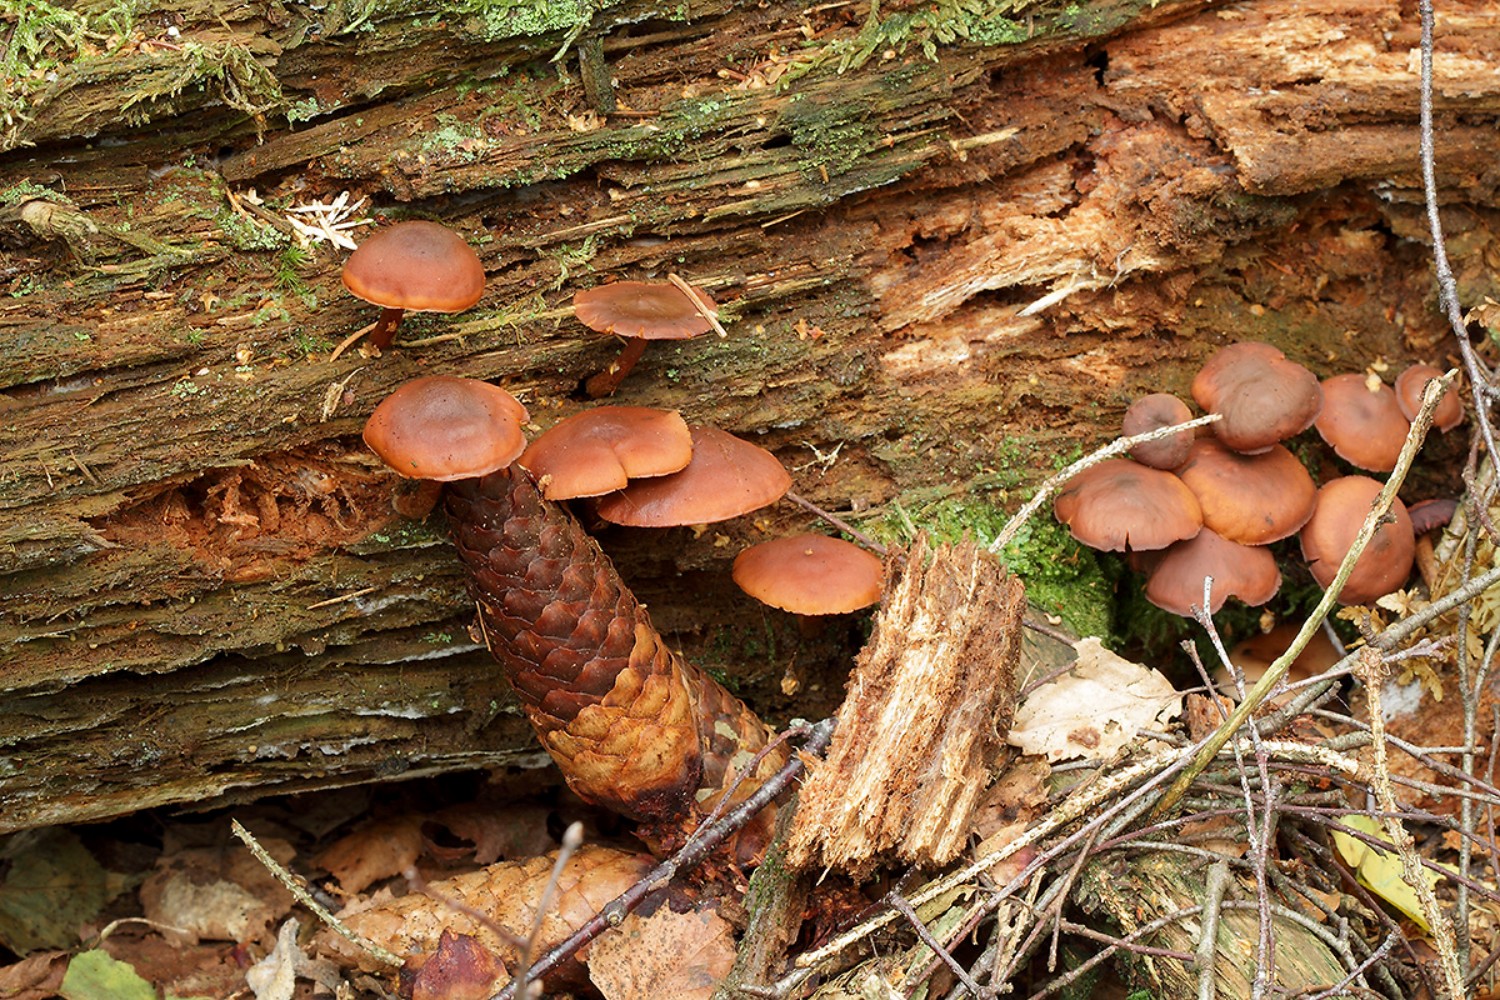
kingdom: Fungi
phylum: Basidiomycota
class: Agaricomycetes
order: Agaricales
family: Hymenogastraceae
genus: Gymnopilus
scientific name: Gymnopilus picreus
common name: puklet flammehat
